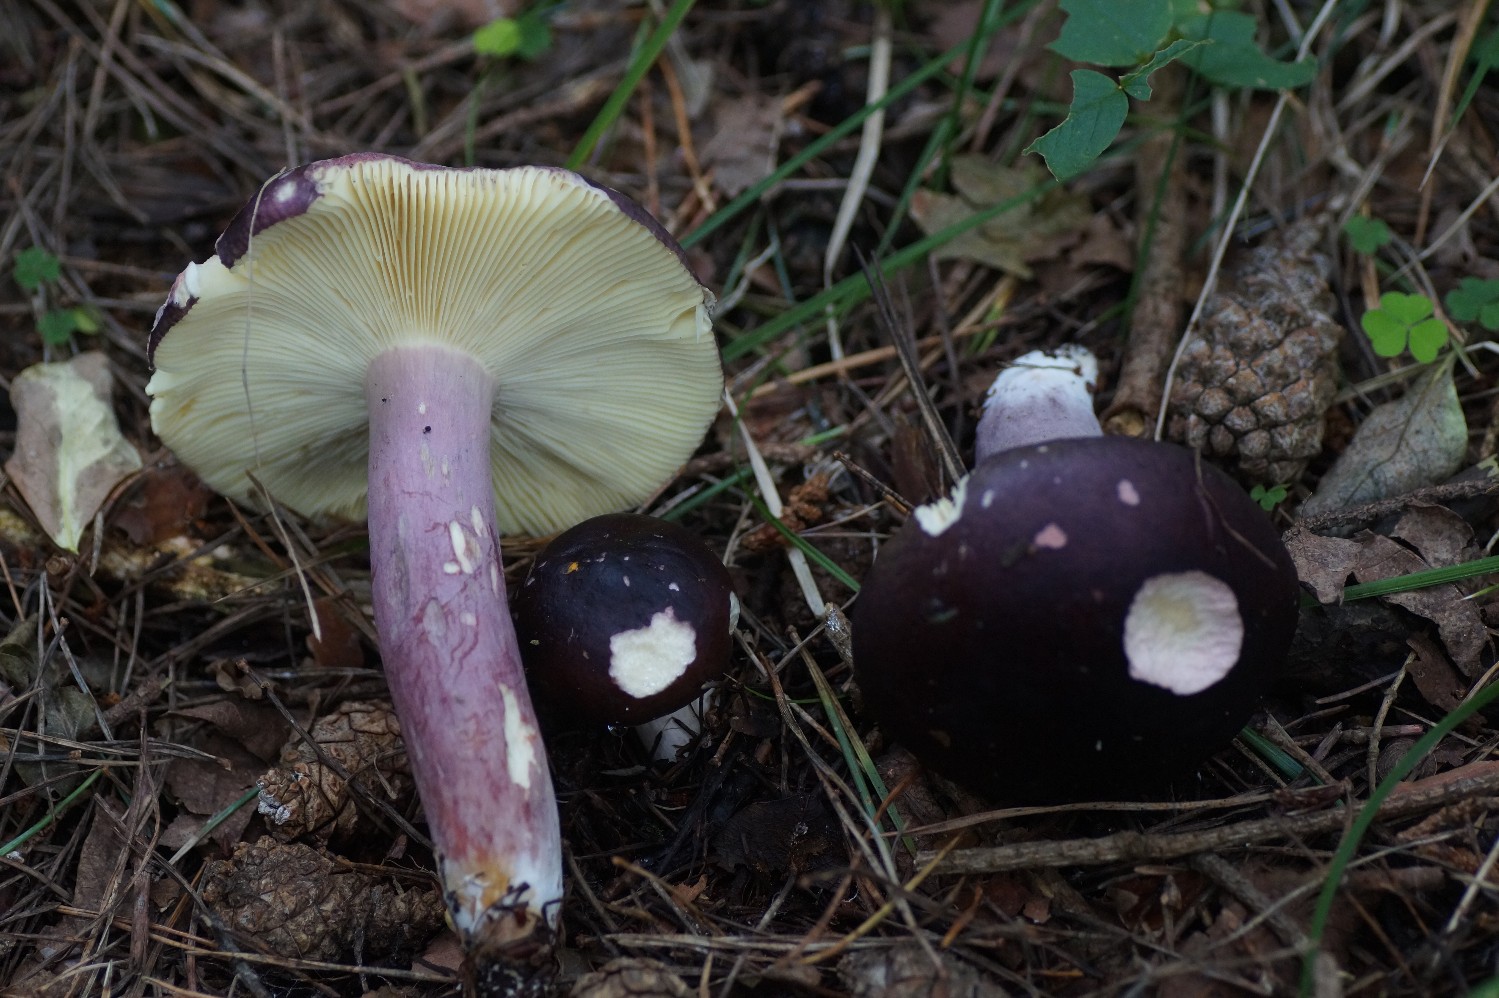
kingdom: Fungi
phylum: Basidiomycota
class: Agaricomycetes
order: Russulales
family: Russulaceae
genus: Russula
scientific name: Russula sardonia
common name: citronbladet skørhat
